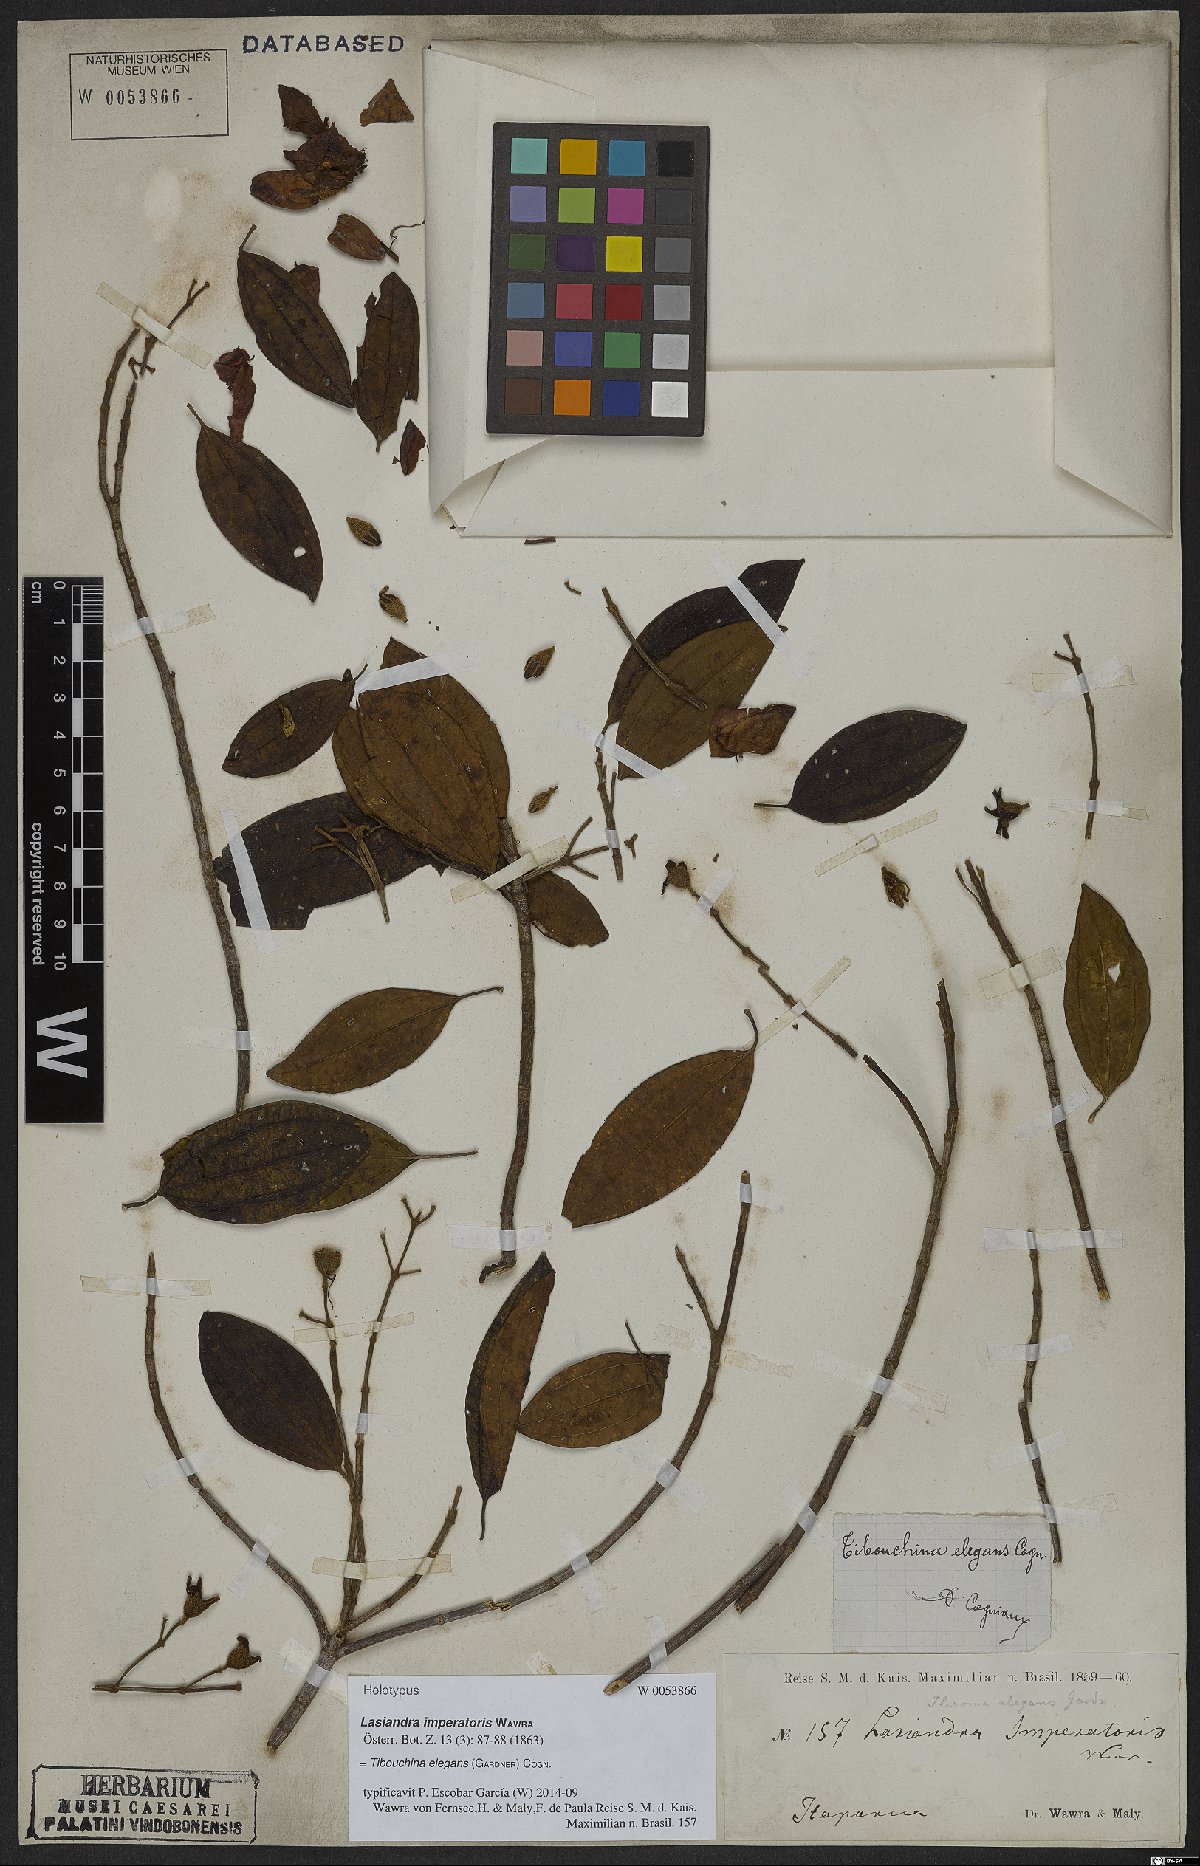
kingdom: Plantae
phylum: Tracheophyta
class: Magnoliopsida
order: Myrtales
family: Melastomataceae
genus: Pleroma
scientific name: Pleroma elegans
